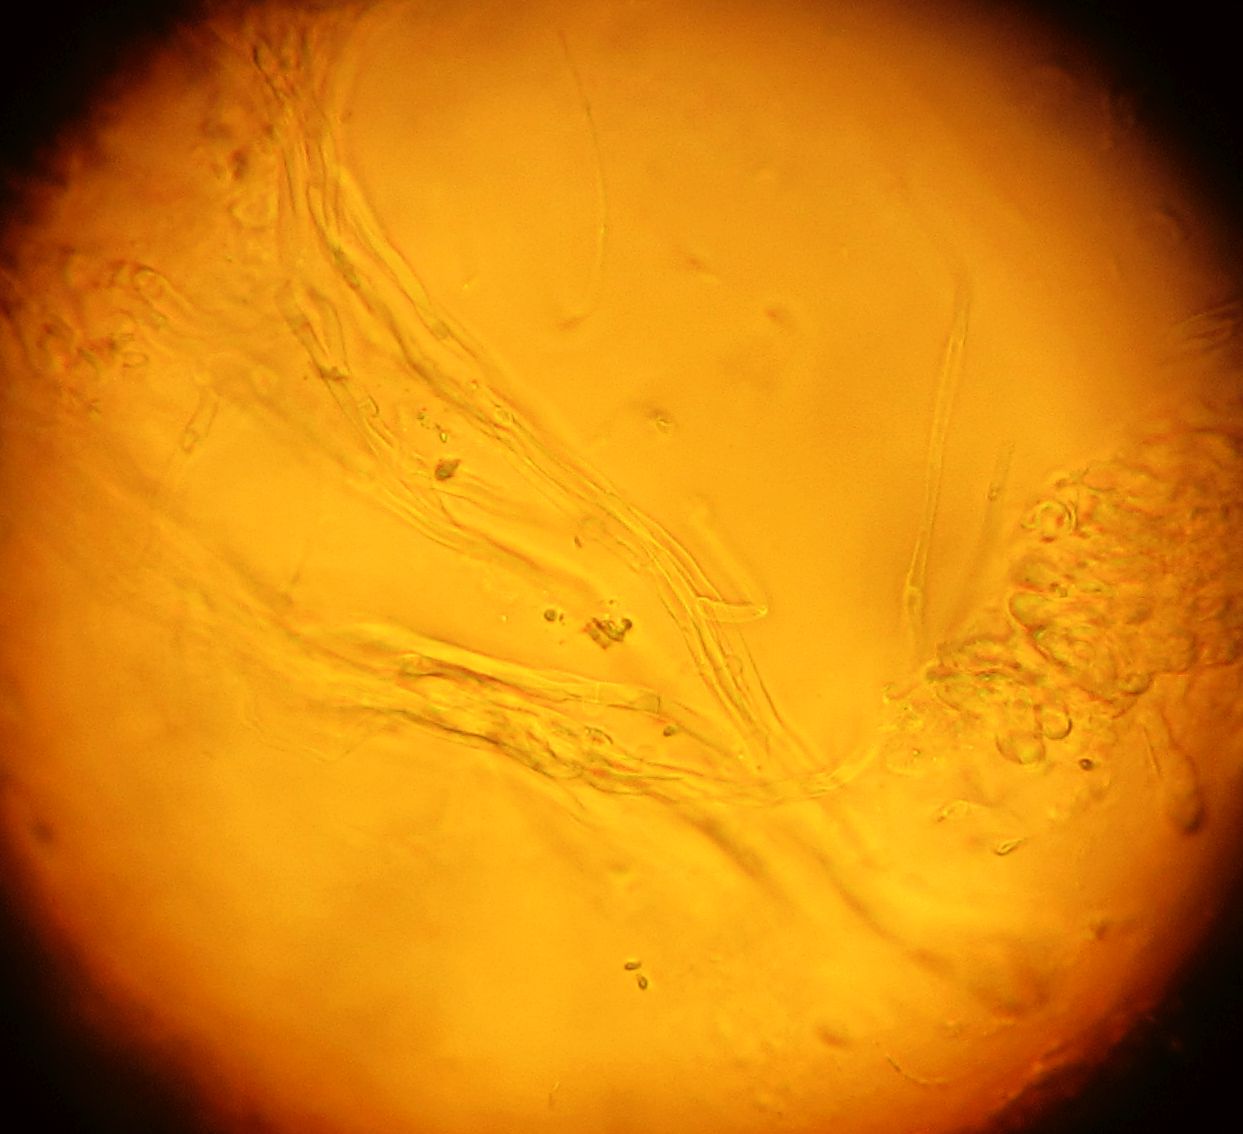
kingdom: Fungi
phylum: Basidiomycota
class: Agaricomycetes
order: Agaricales
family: Pleurotaceae
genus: Hohenbuehelia
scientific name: Hohenbuehelia
